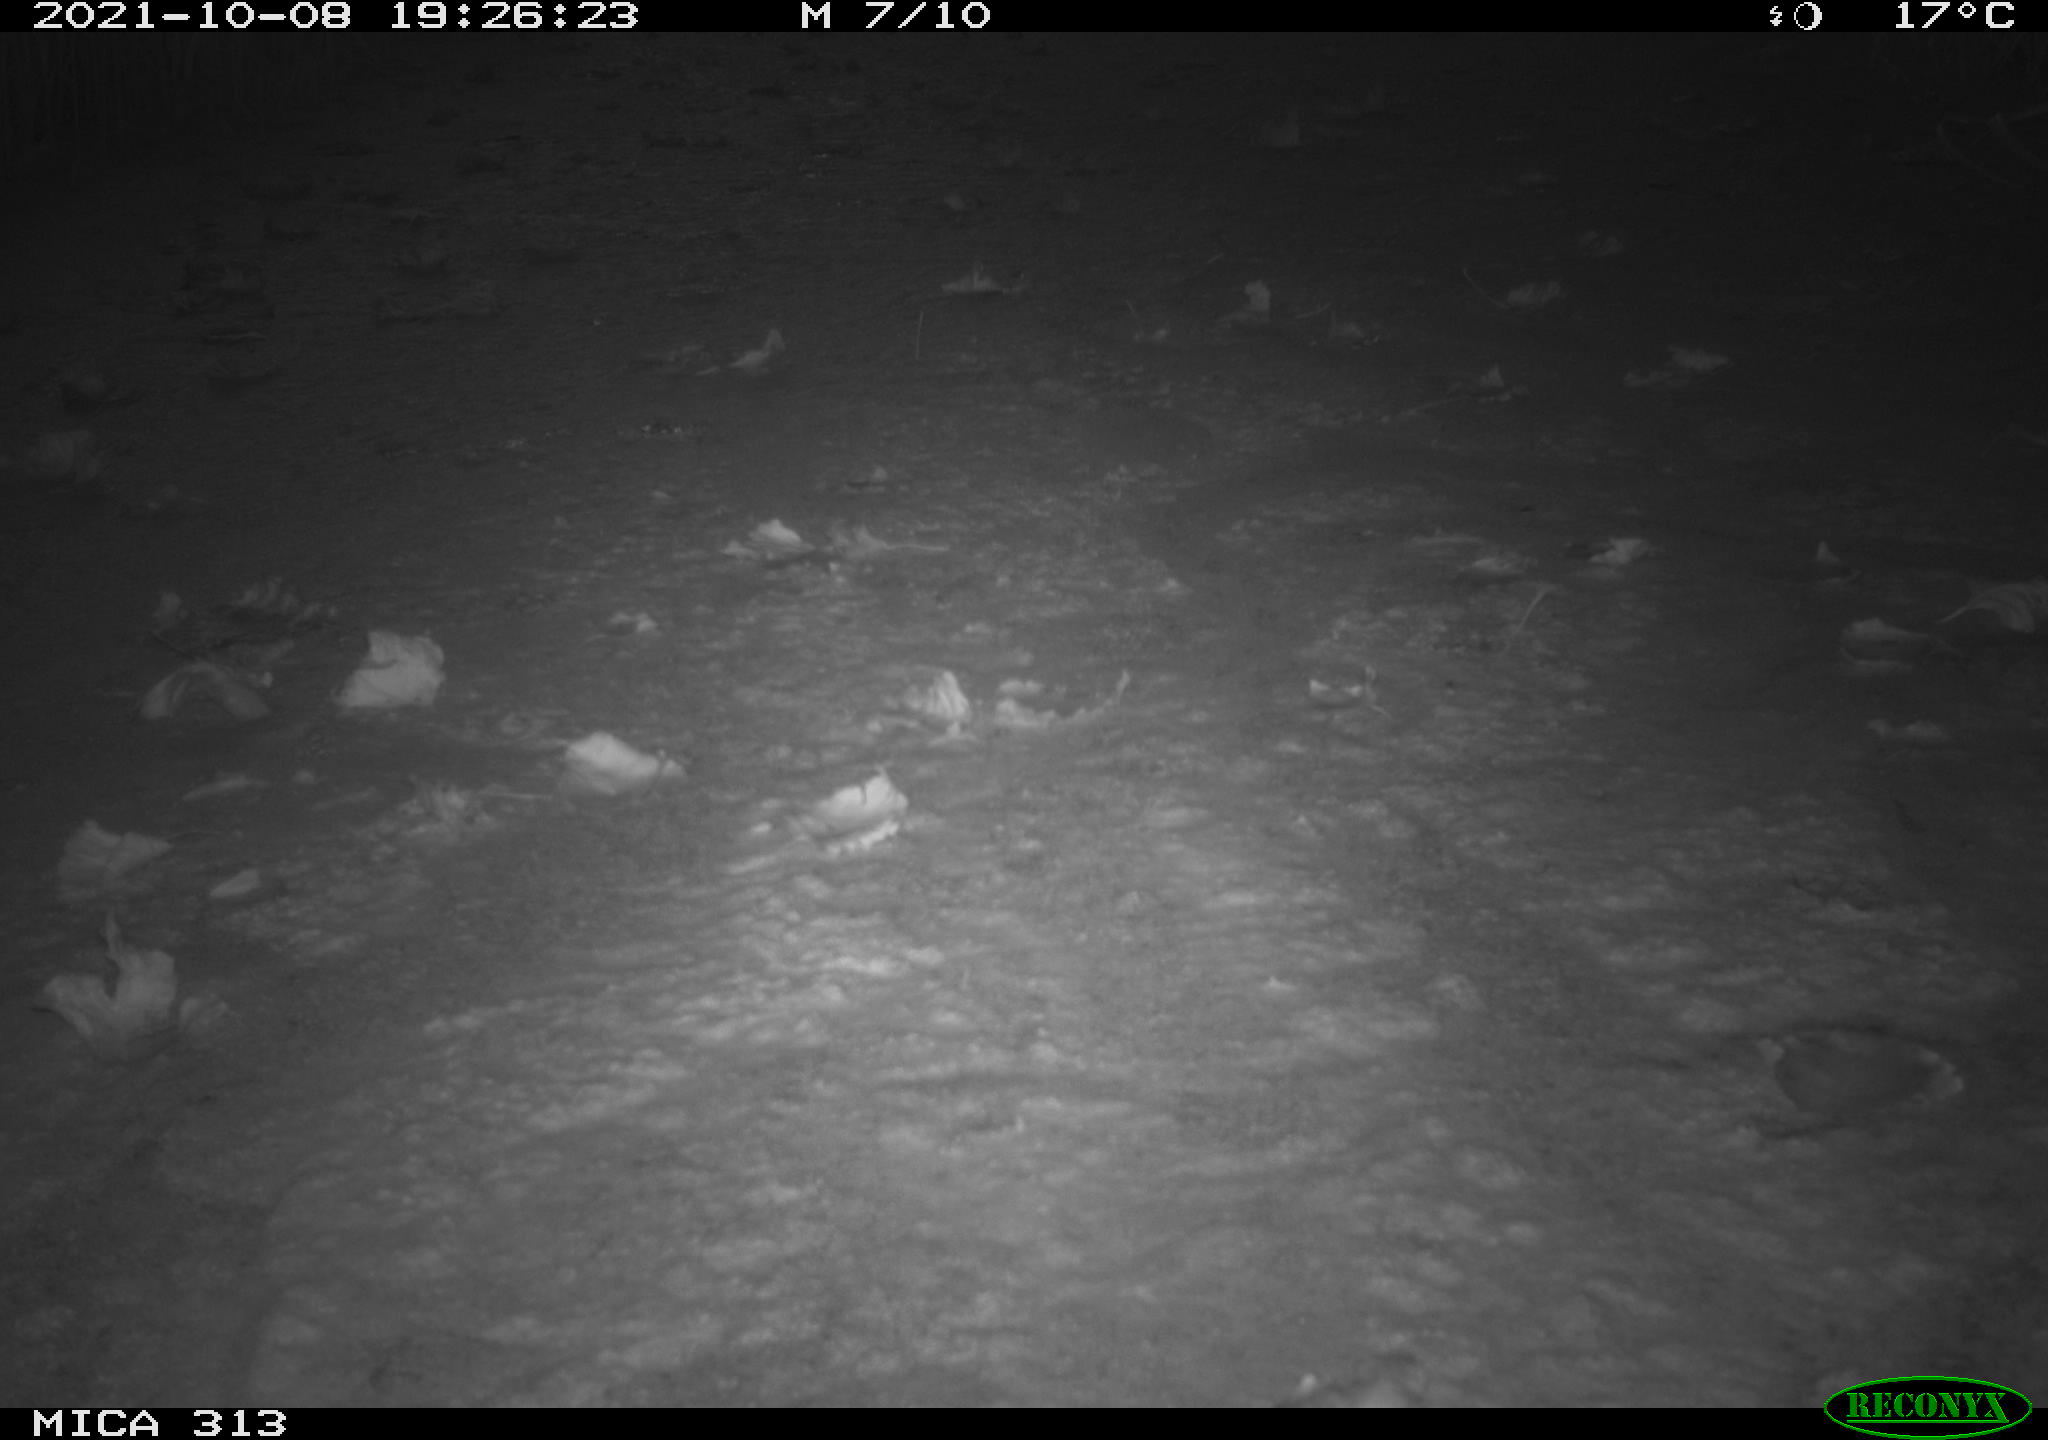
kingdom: Animalia
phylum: Chordata
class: Aves
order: Gruiformes
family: Rallidae
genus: Gallinula
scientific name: Gallinula chloropus
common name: Common moorhen
